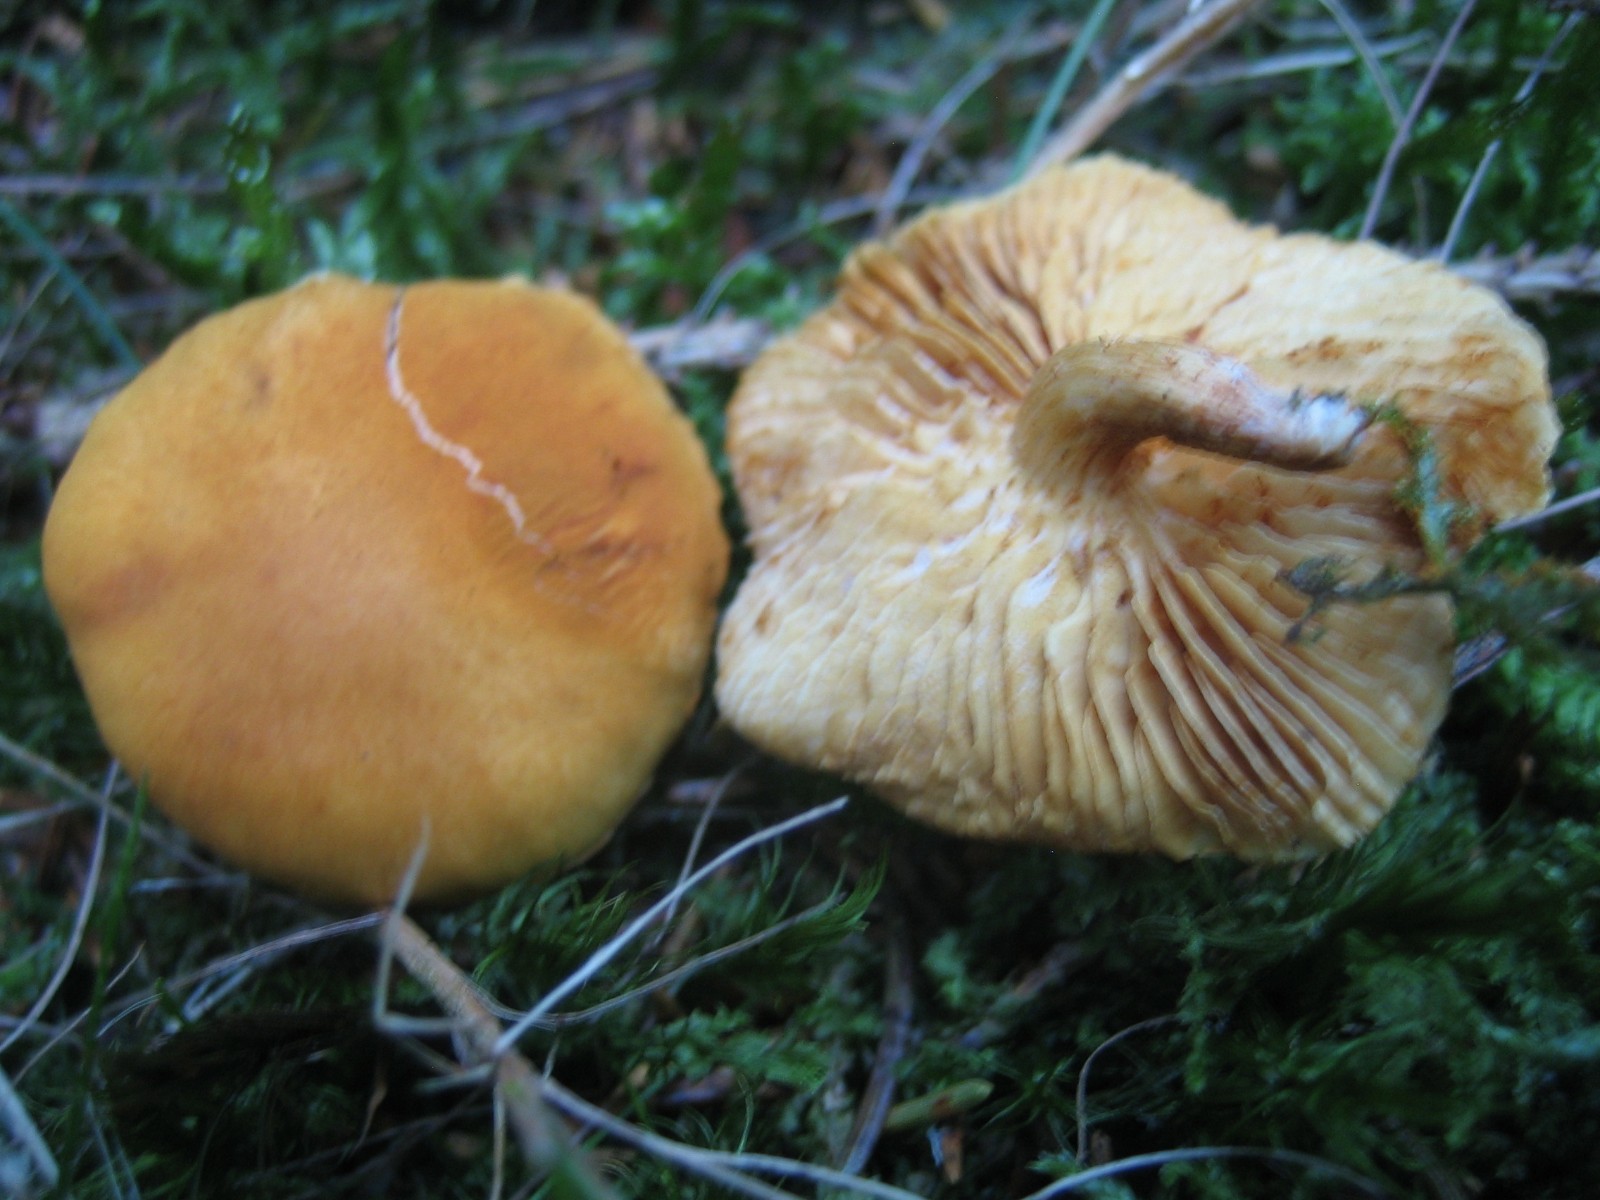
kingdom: Fungi
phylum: Basidiomycota
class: Agaricomycetes
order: Agaricales
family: Hymenogastraceae
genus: Gymnopilus
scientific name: Gymnopilus penetrans
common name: plettet flammehat
